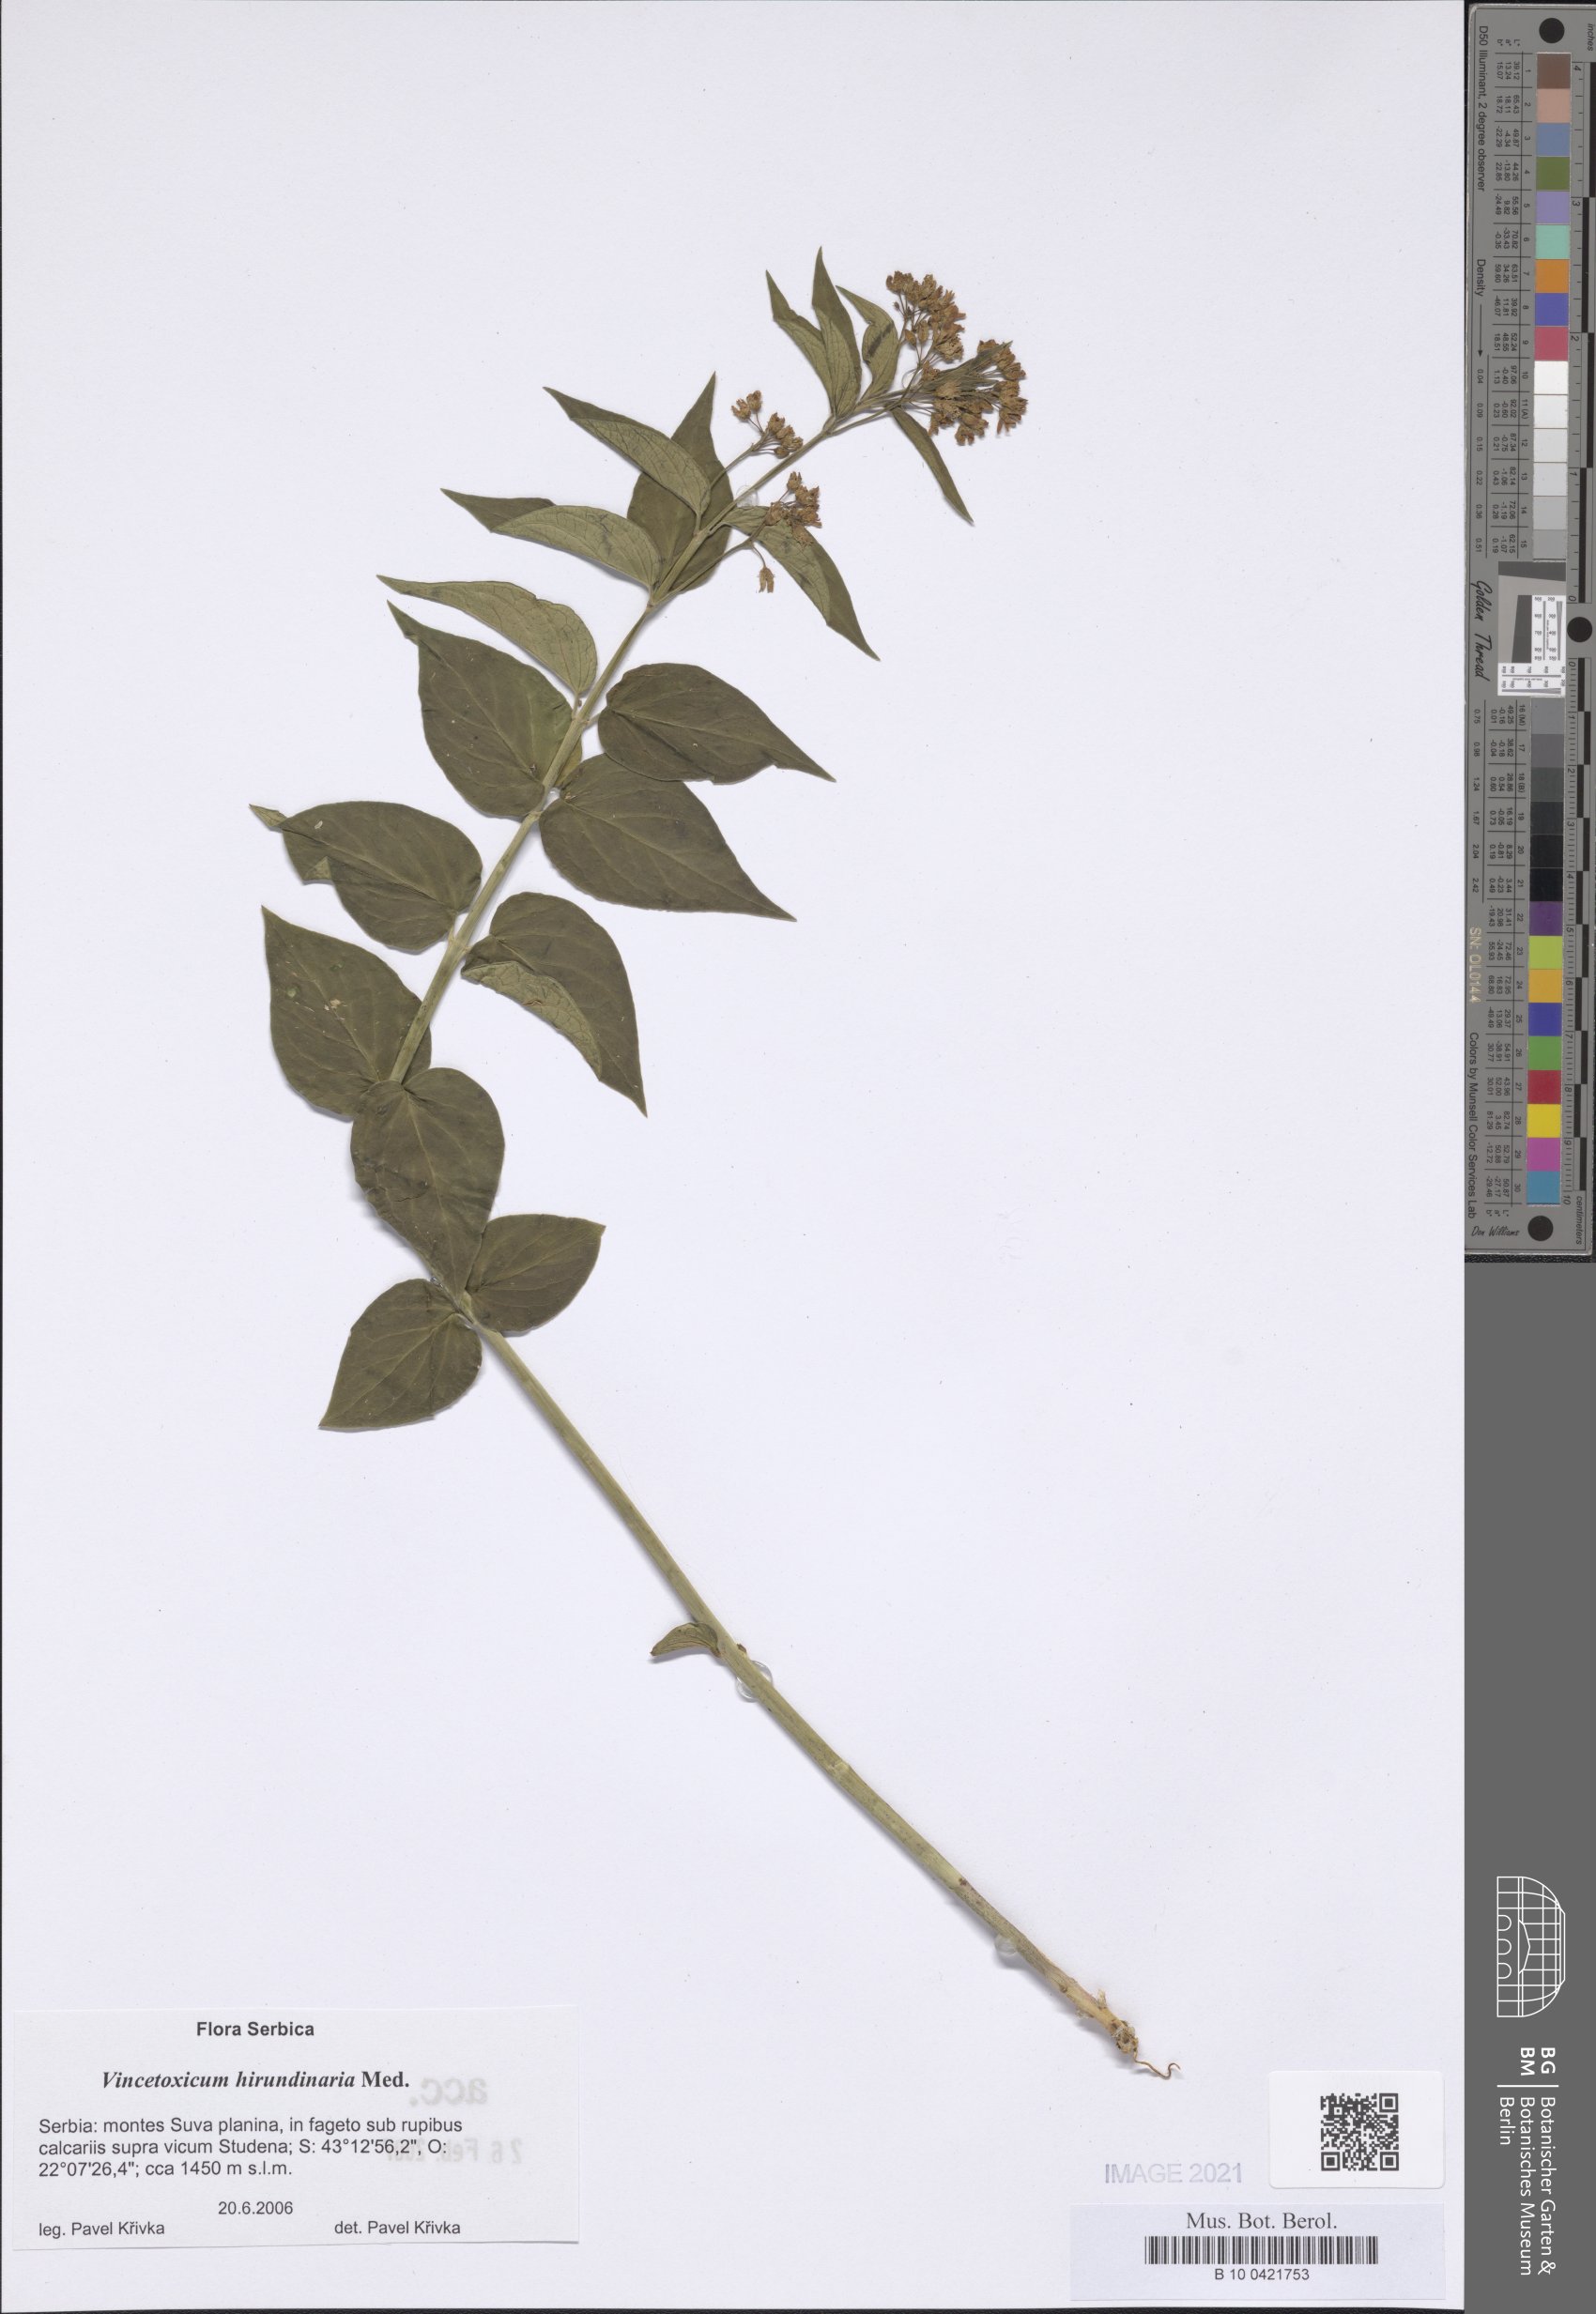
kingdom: Plantae
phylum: Tracheophyta
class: Magnoliopsida
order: Gentianales
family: Apocynaceae
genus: Vincetoxicum
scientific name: Vincetoxicum hirundinaria
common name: White swallowwort
